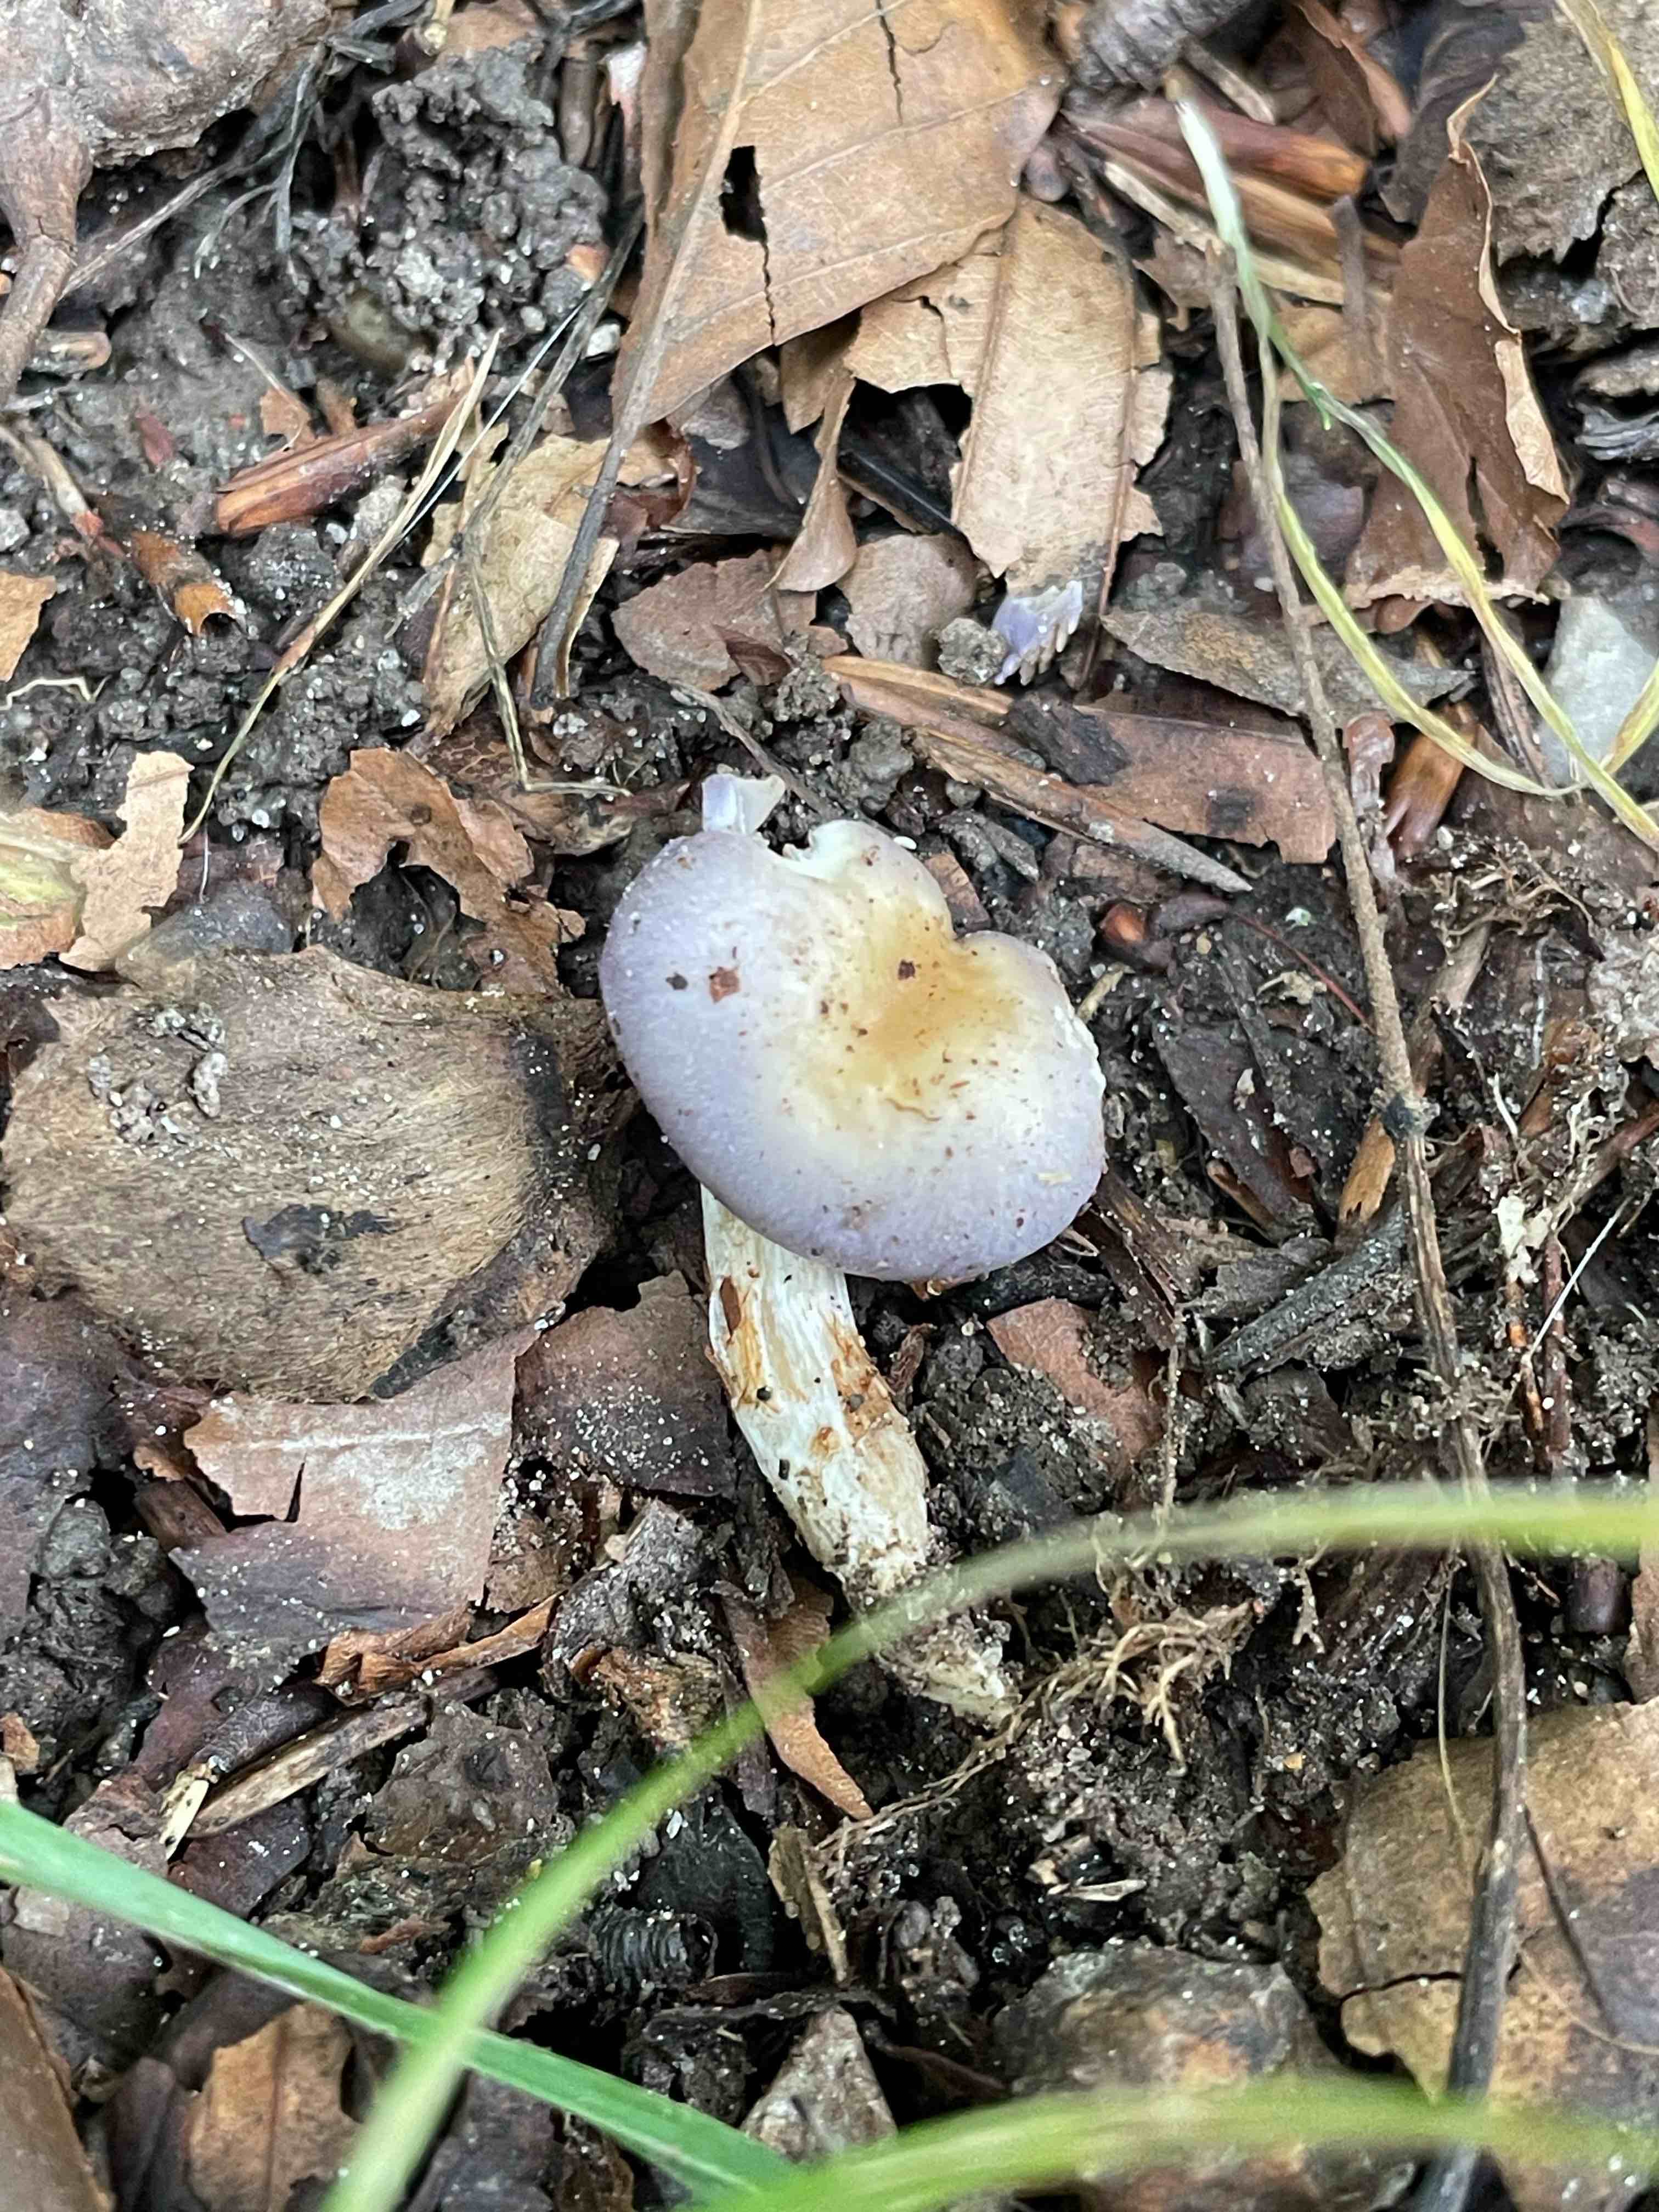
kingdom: Fungi
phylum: Basidiomycota
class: Agaricomycetes
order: Agaricales
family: Cortinariaceae
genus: Thaxterogaster
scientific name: Thaxterogaster croceocoeruleus
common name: blågullig slørhat
